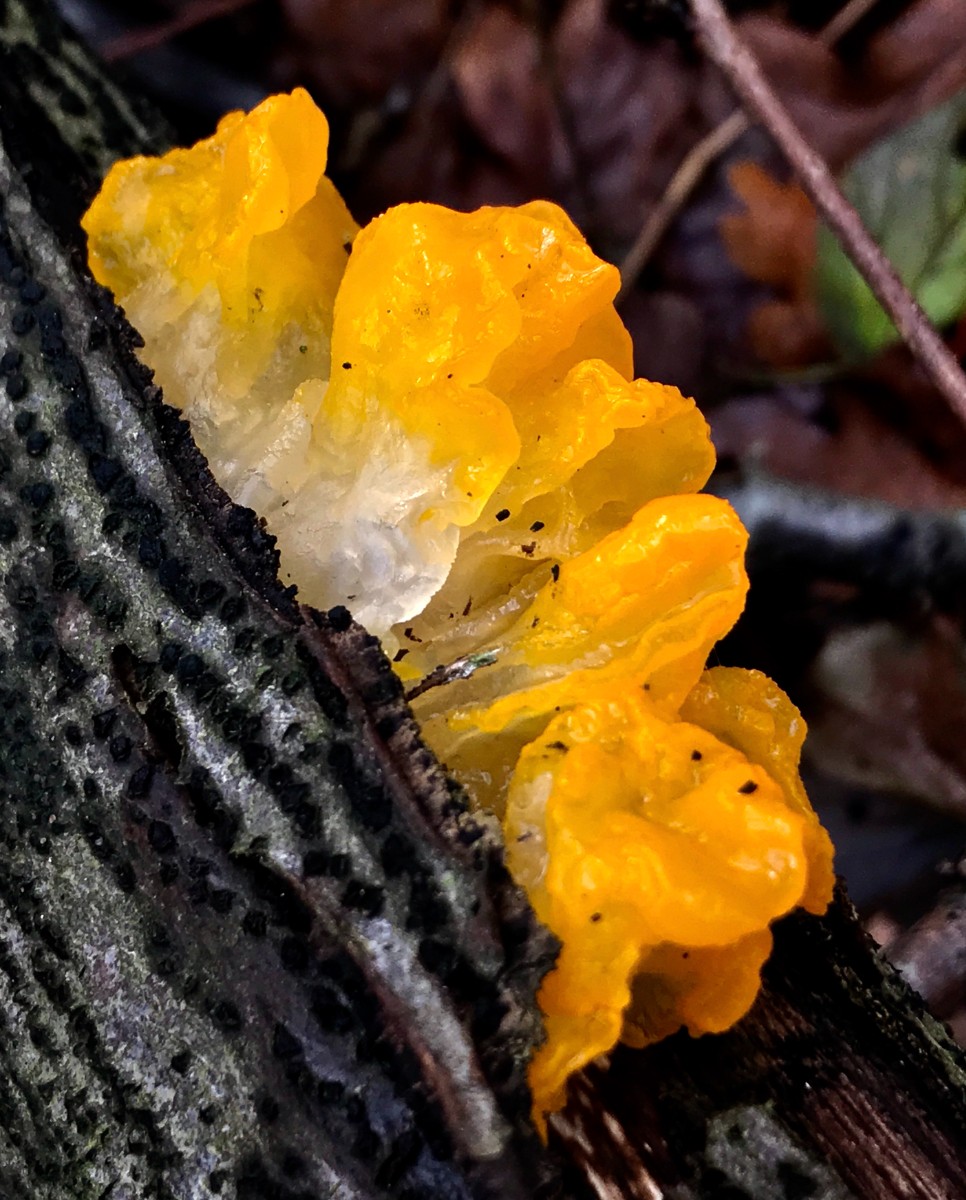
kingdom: Fungi
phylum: Basidiomycota
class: Tremellomycetes
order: Tremellales
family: Tremellaceae
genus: Tremella
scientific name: Tremella mesenterica
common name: gul bævresvamp
